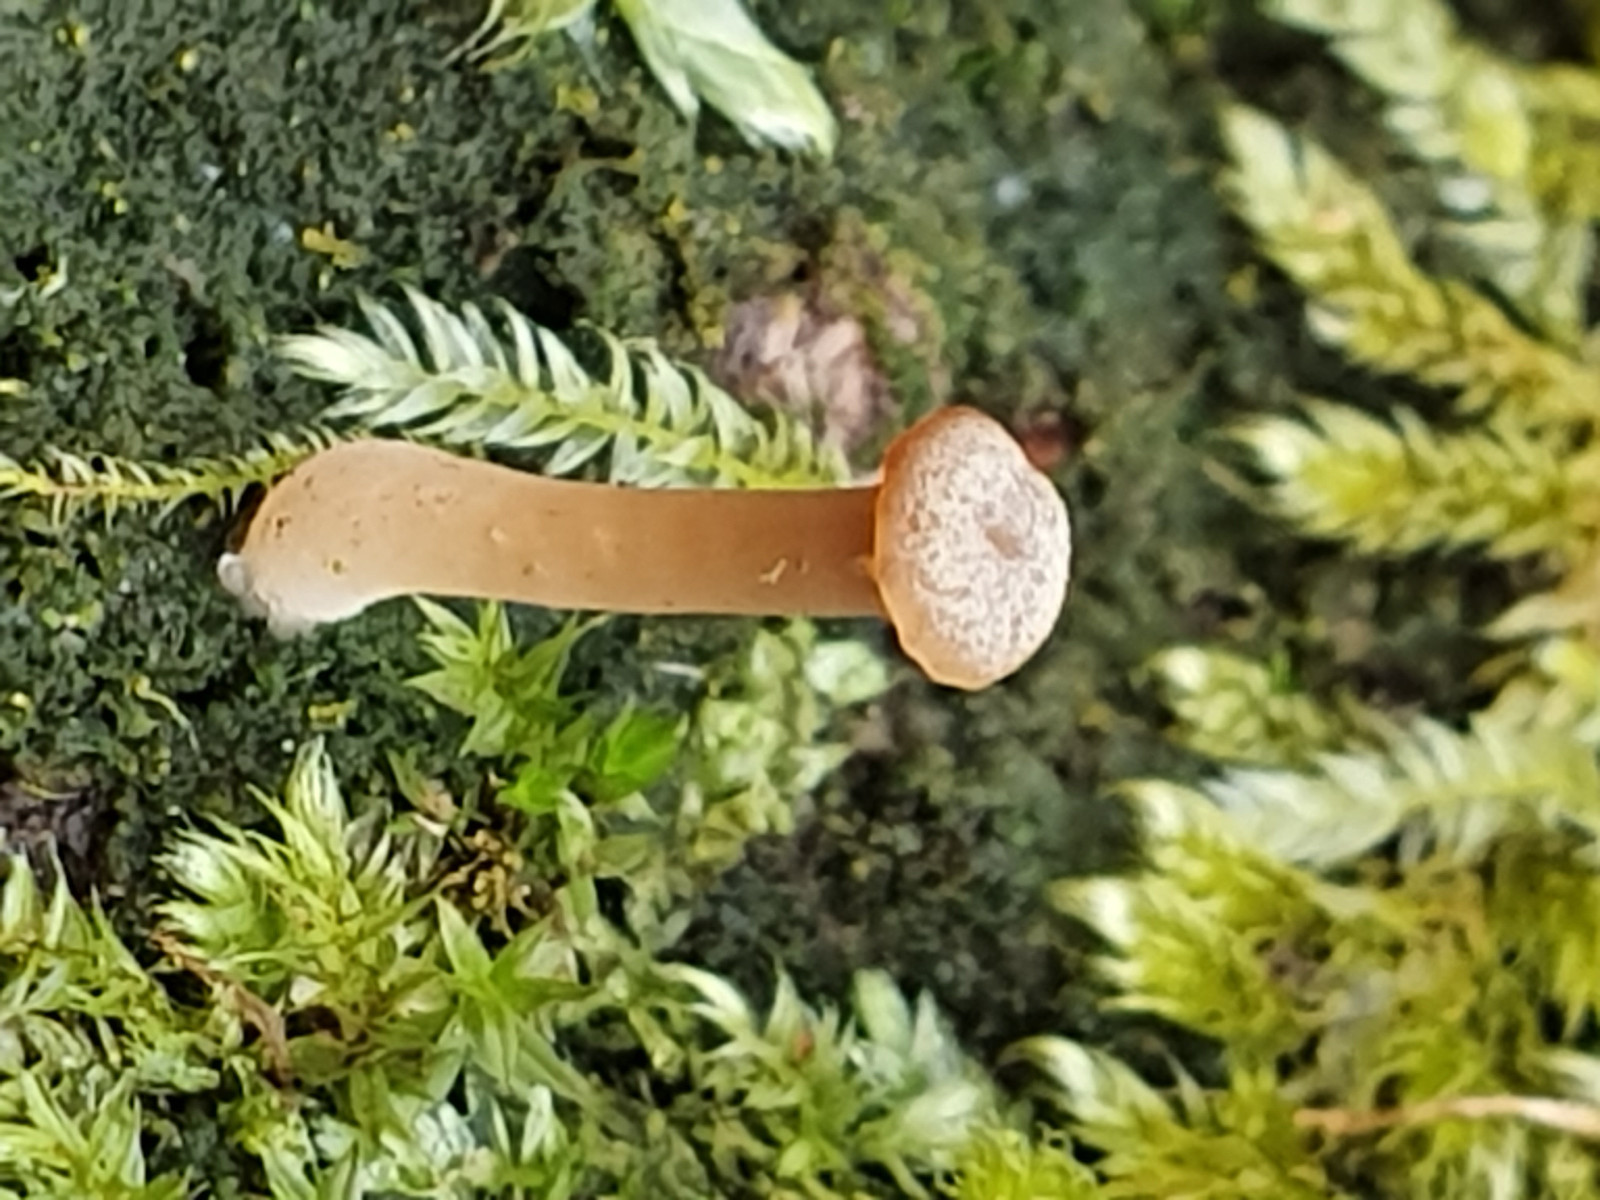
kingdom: Fungi
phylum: Basidiomycota
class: Agaricomycetes
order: Agaricales
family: Hygrophoraceae
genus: Lichenomphalia
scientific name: Lichenomphalia umbellifera
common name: tørve-lavhat
